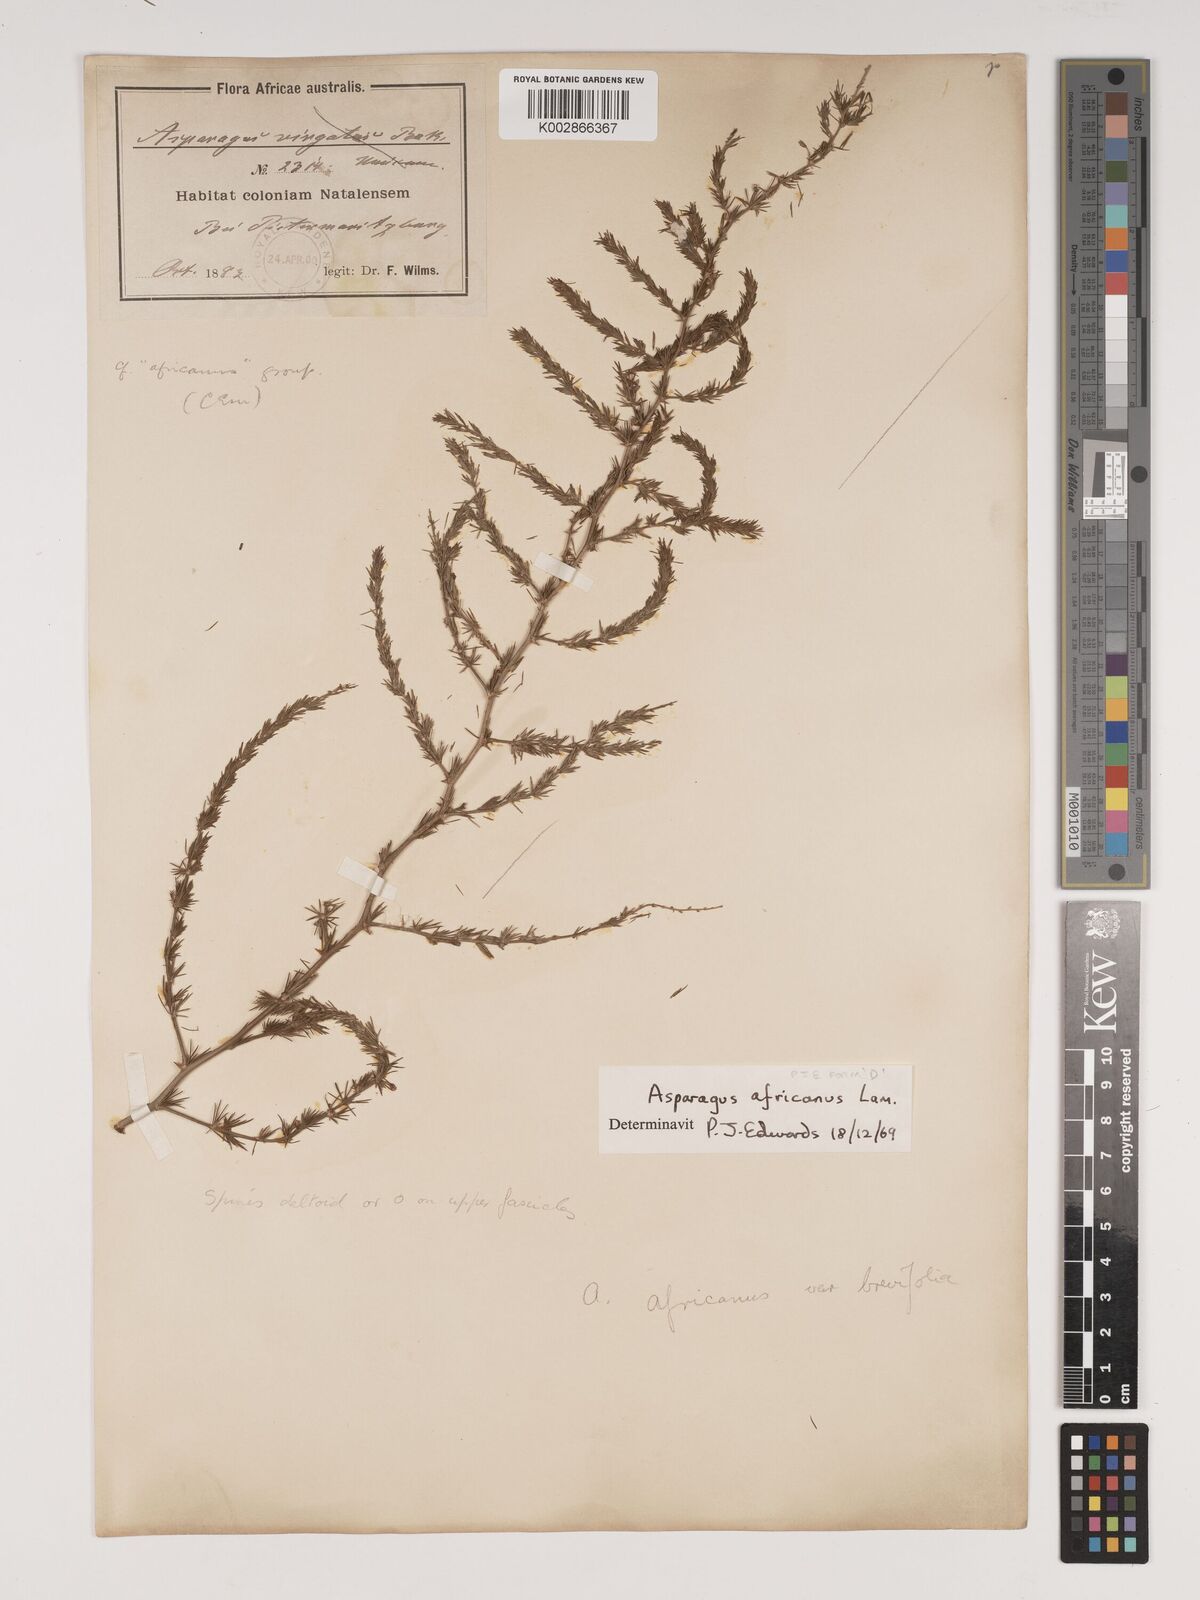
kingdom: Plantae
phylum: Tracheophyta
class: Liliopsida
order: Asparagales
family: Asparagaceae
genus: Asparagus
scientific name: Asparagus africanus
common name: Asparagus-fern
